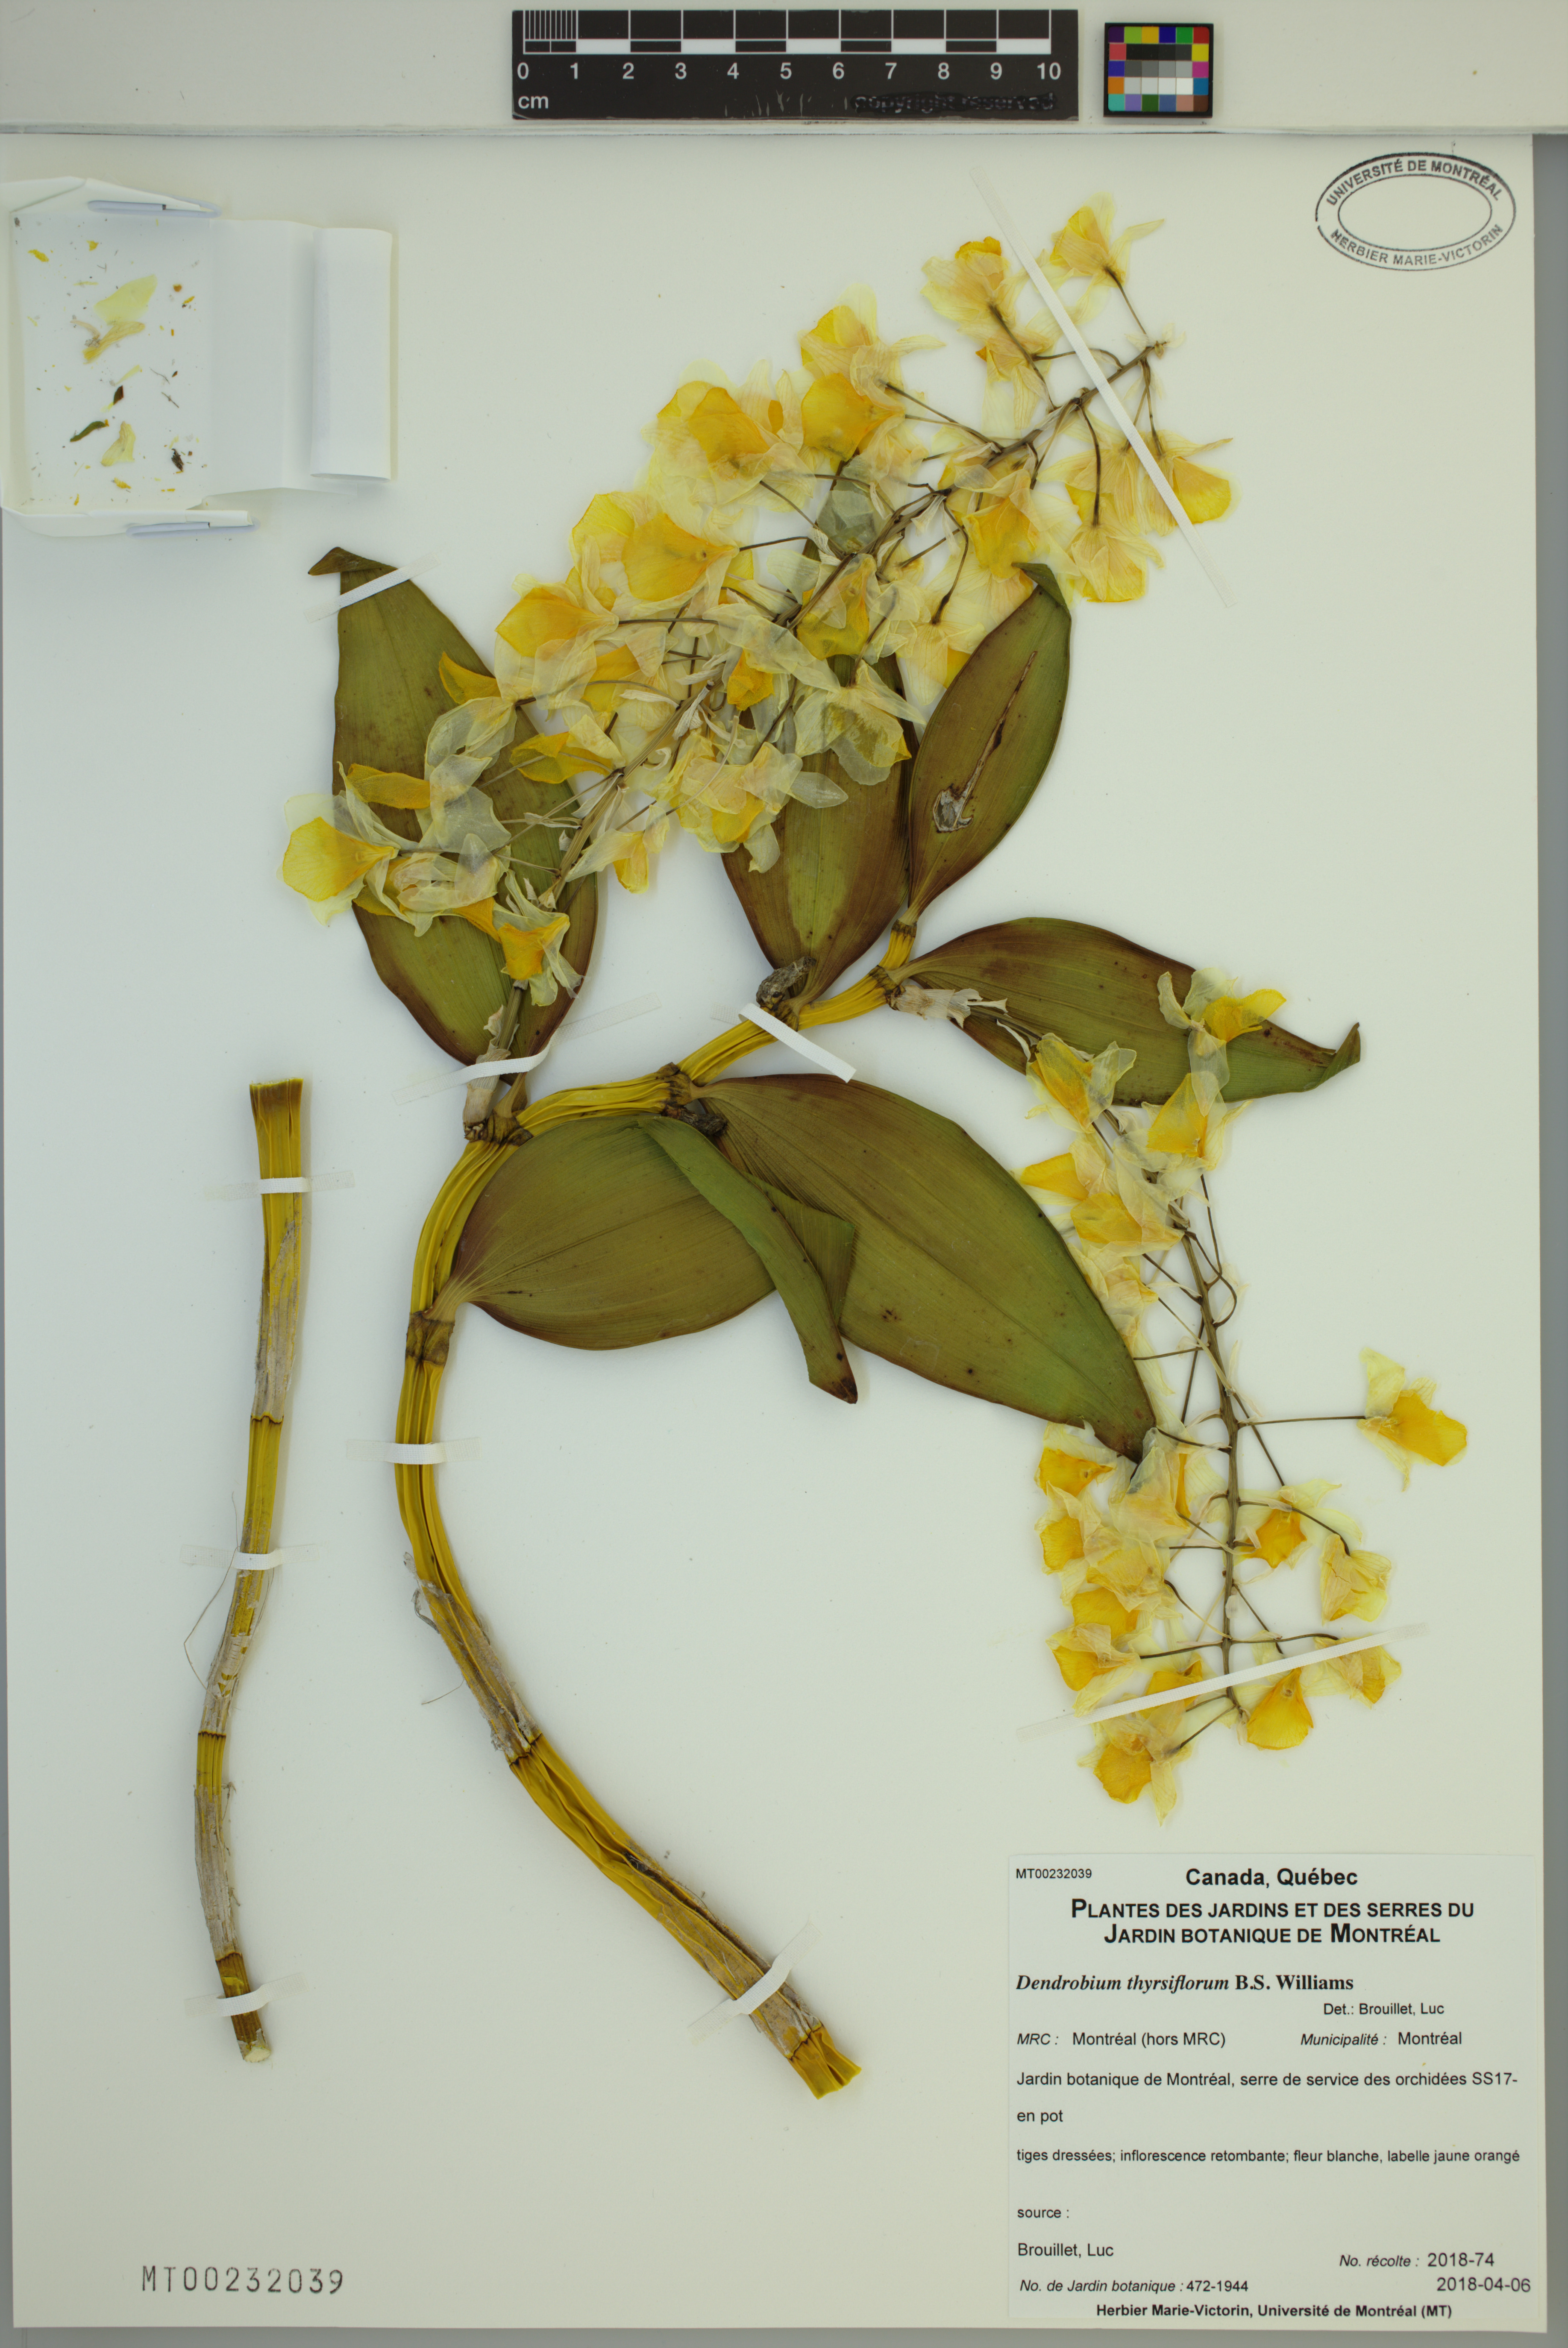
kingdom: Plantae
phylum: Tracheophyta
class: Liliopsida
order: Asparagales
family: Orchidaceae
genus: Dendrobium
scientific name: Dendrobium thyrsiflorum
